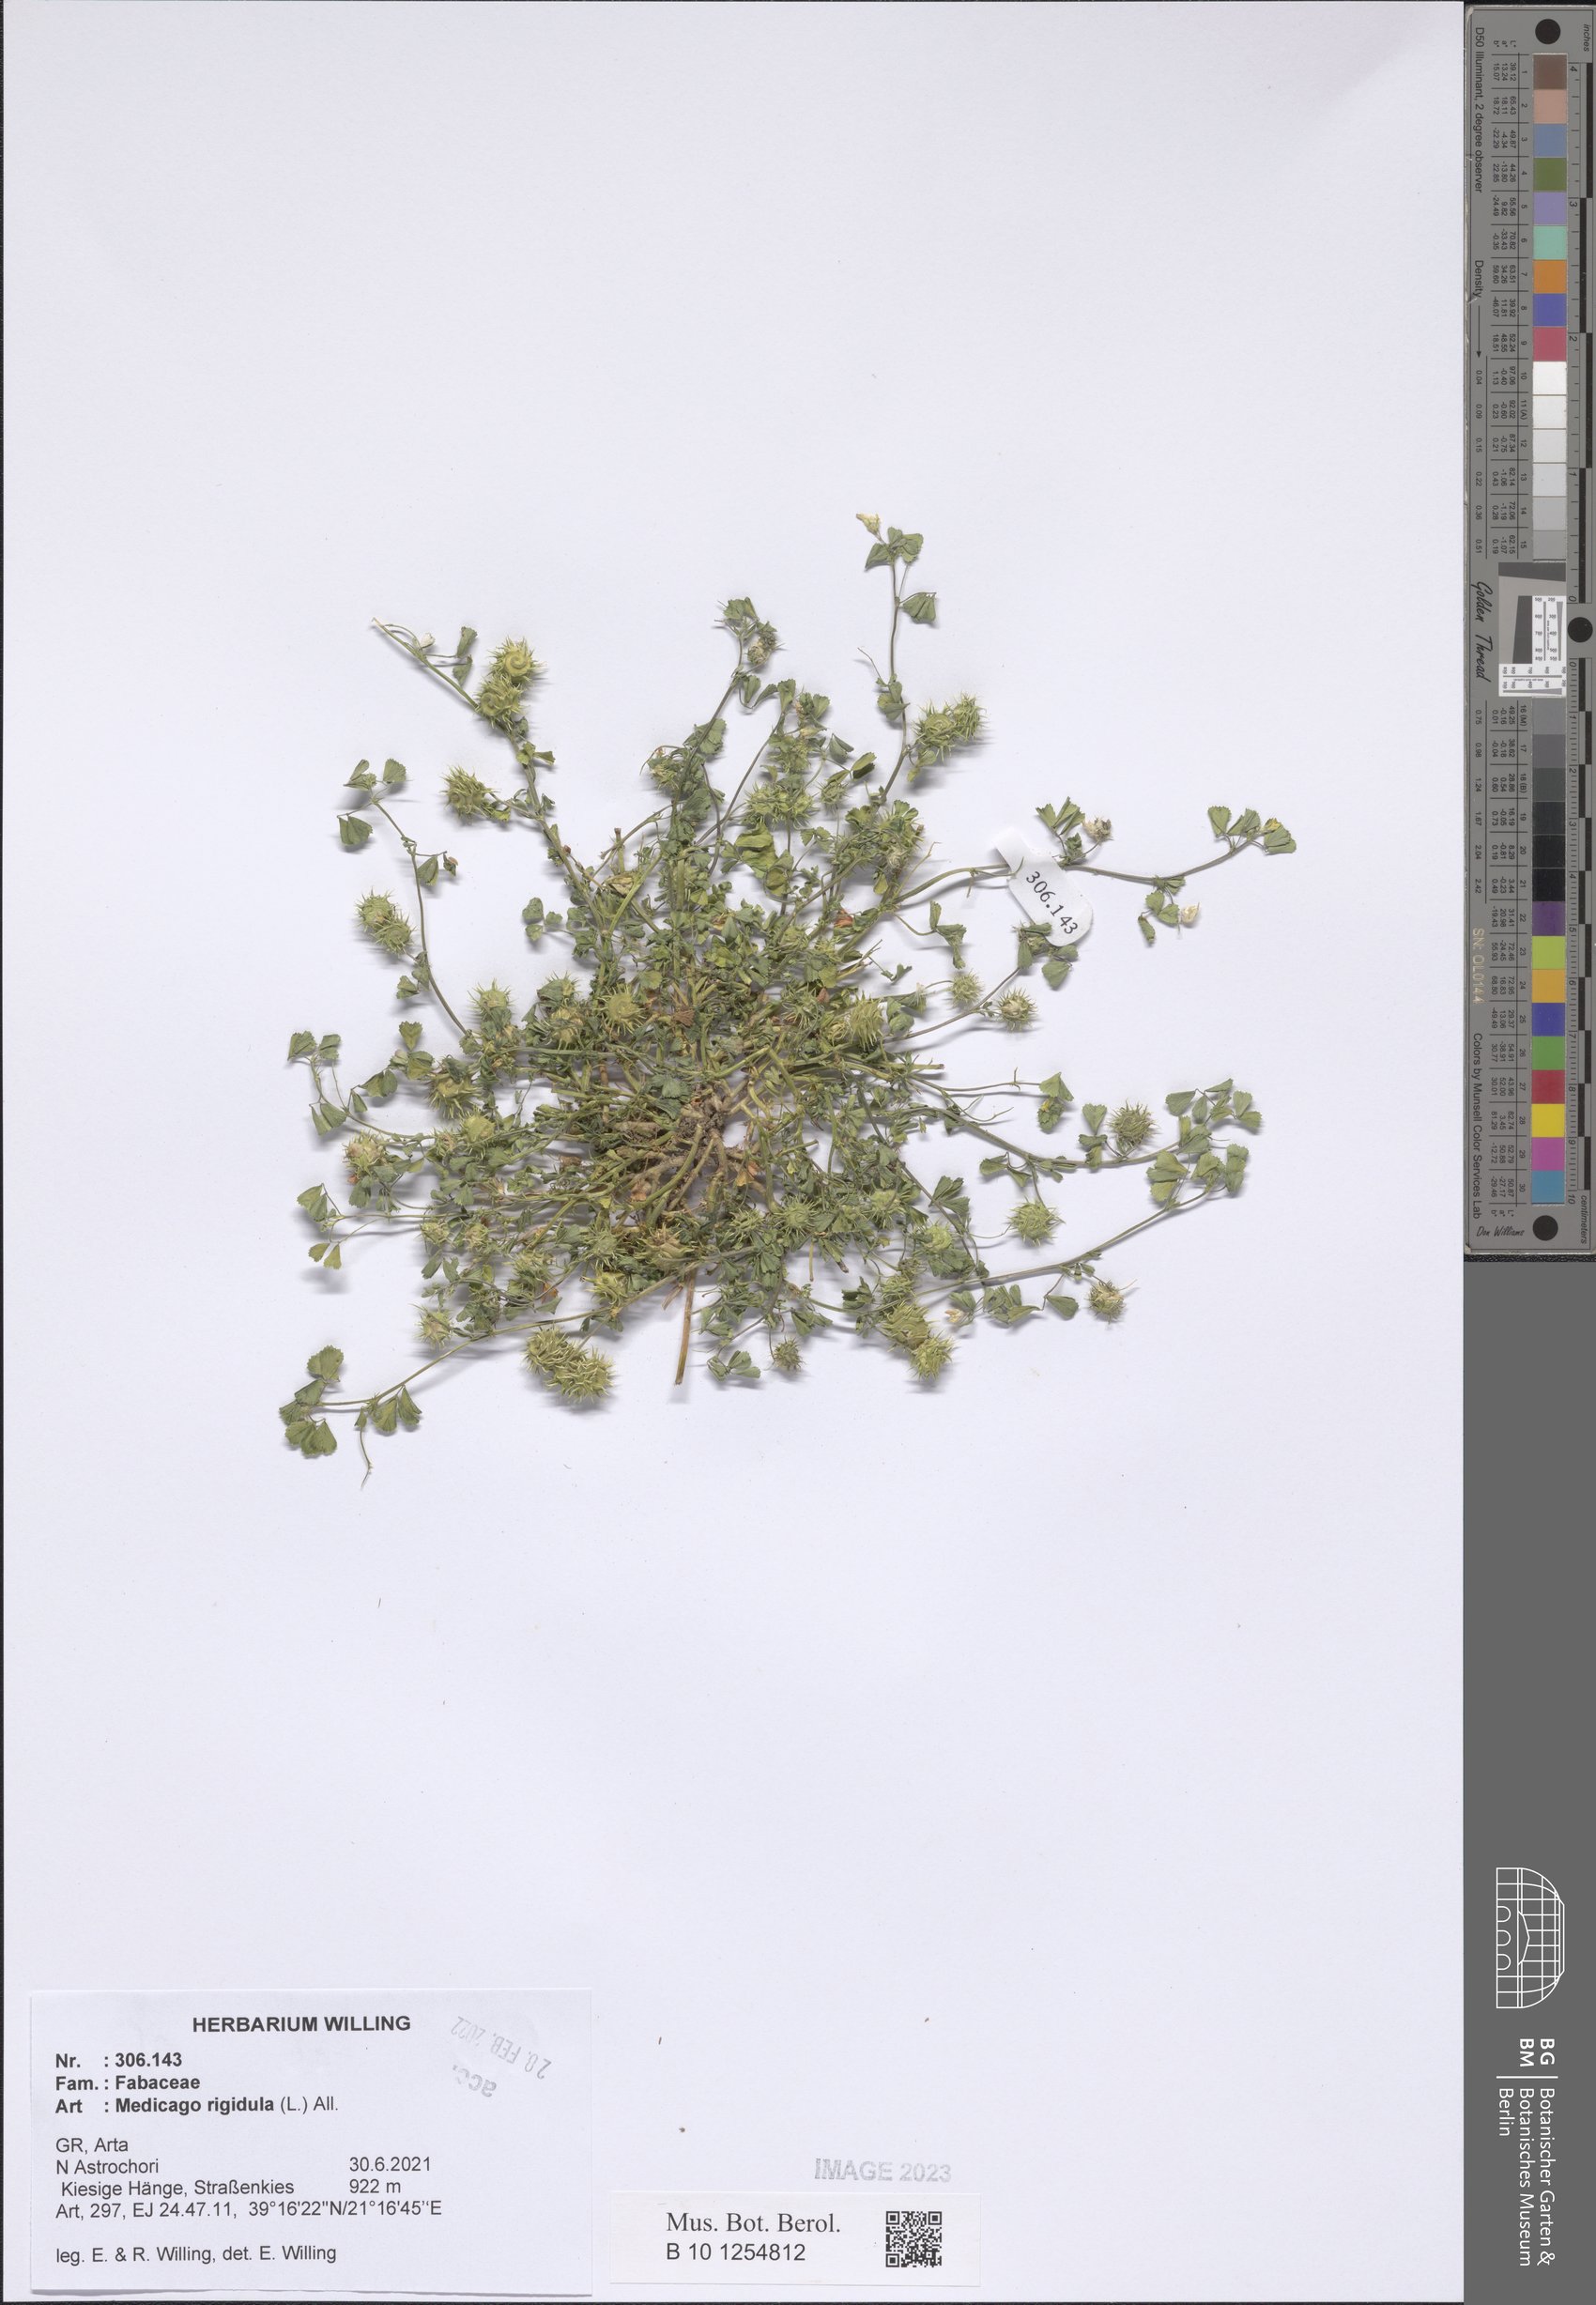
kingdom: Plantae
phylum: Tracheophyta
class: Magnoliopsida
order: Fabales
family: Fabaceae
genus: Medicago
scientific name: Medicago rigidula
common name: Tifton medic
